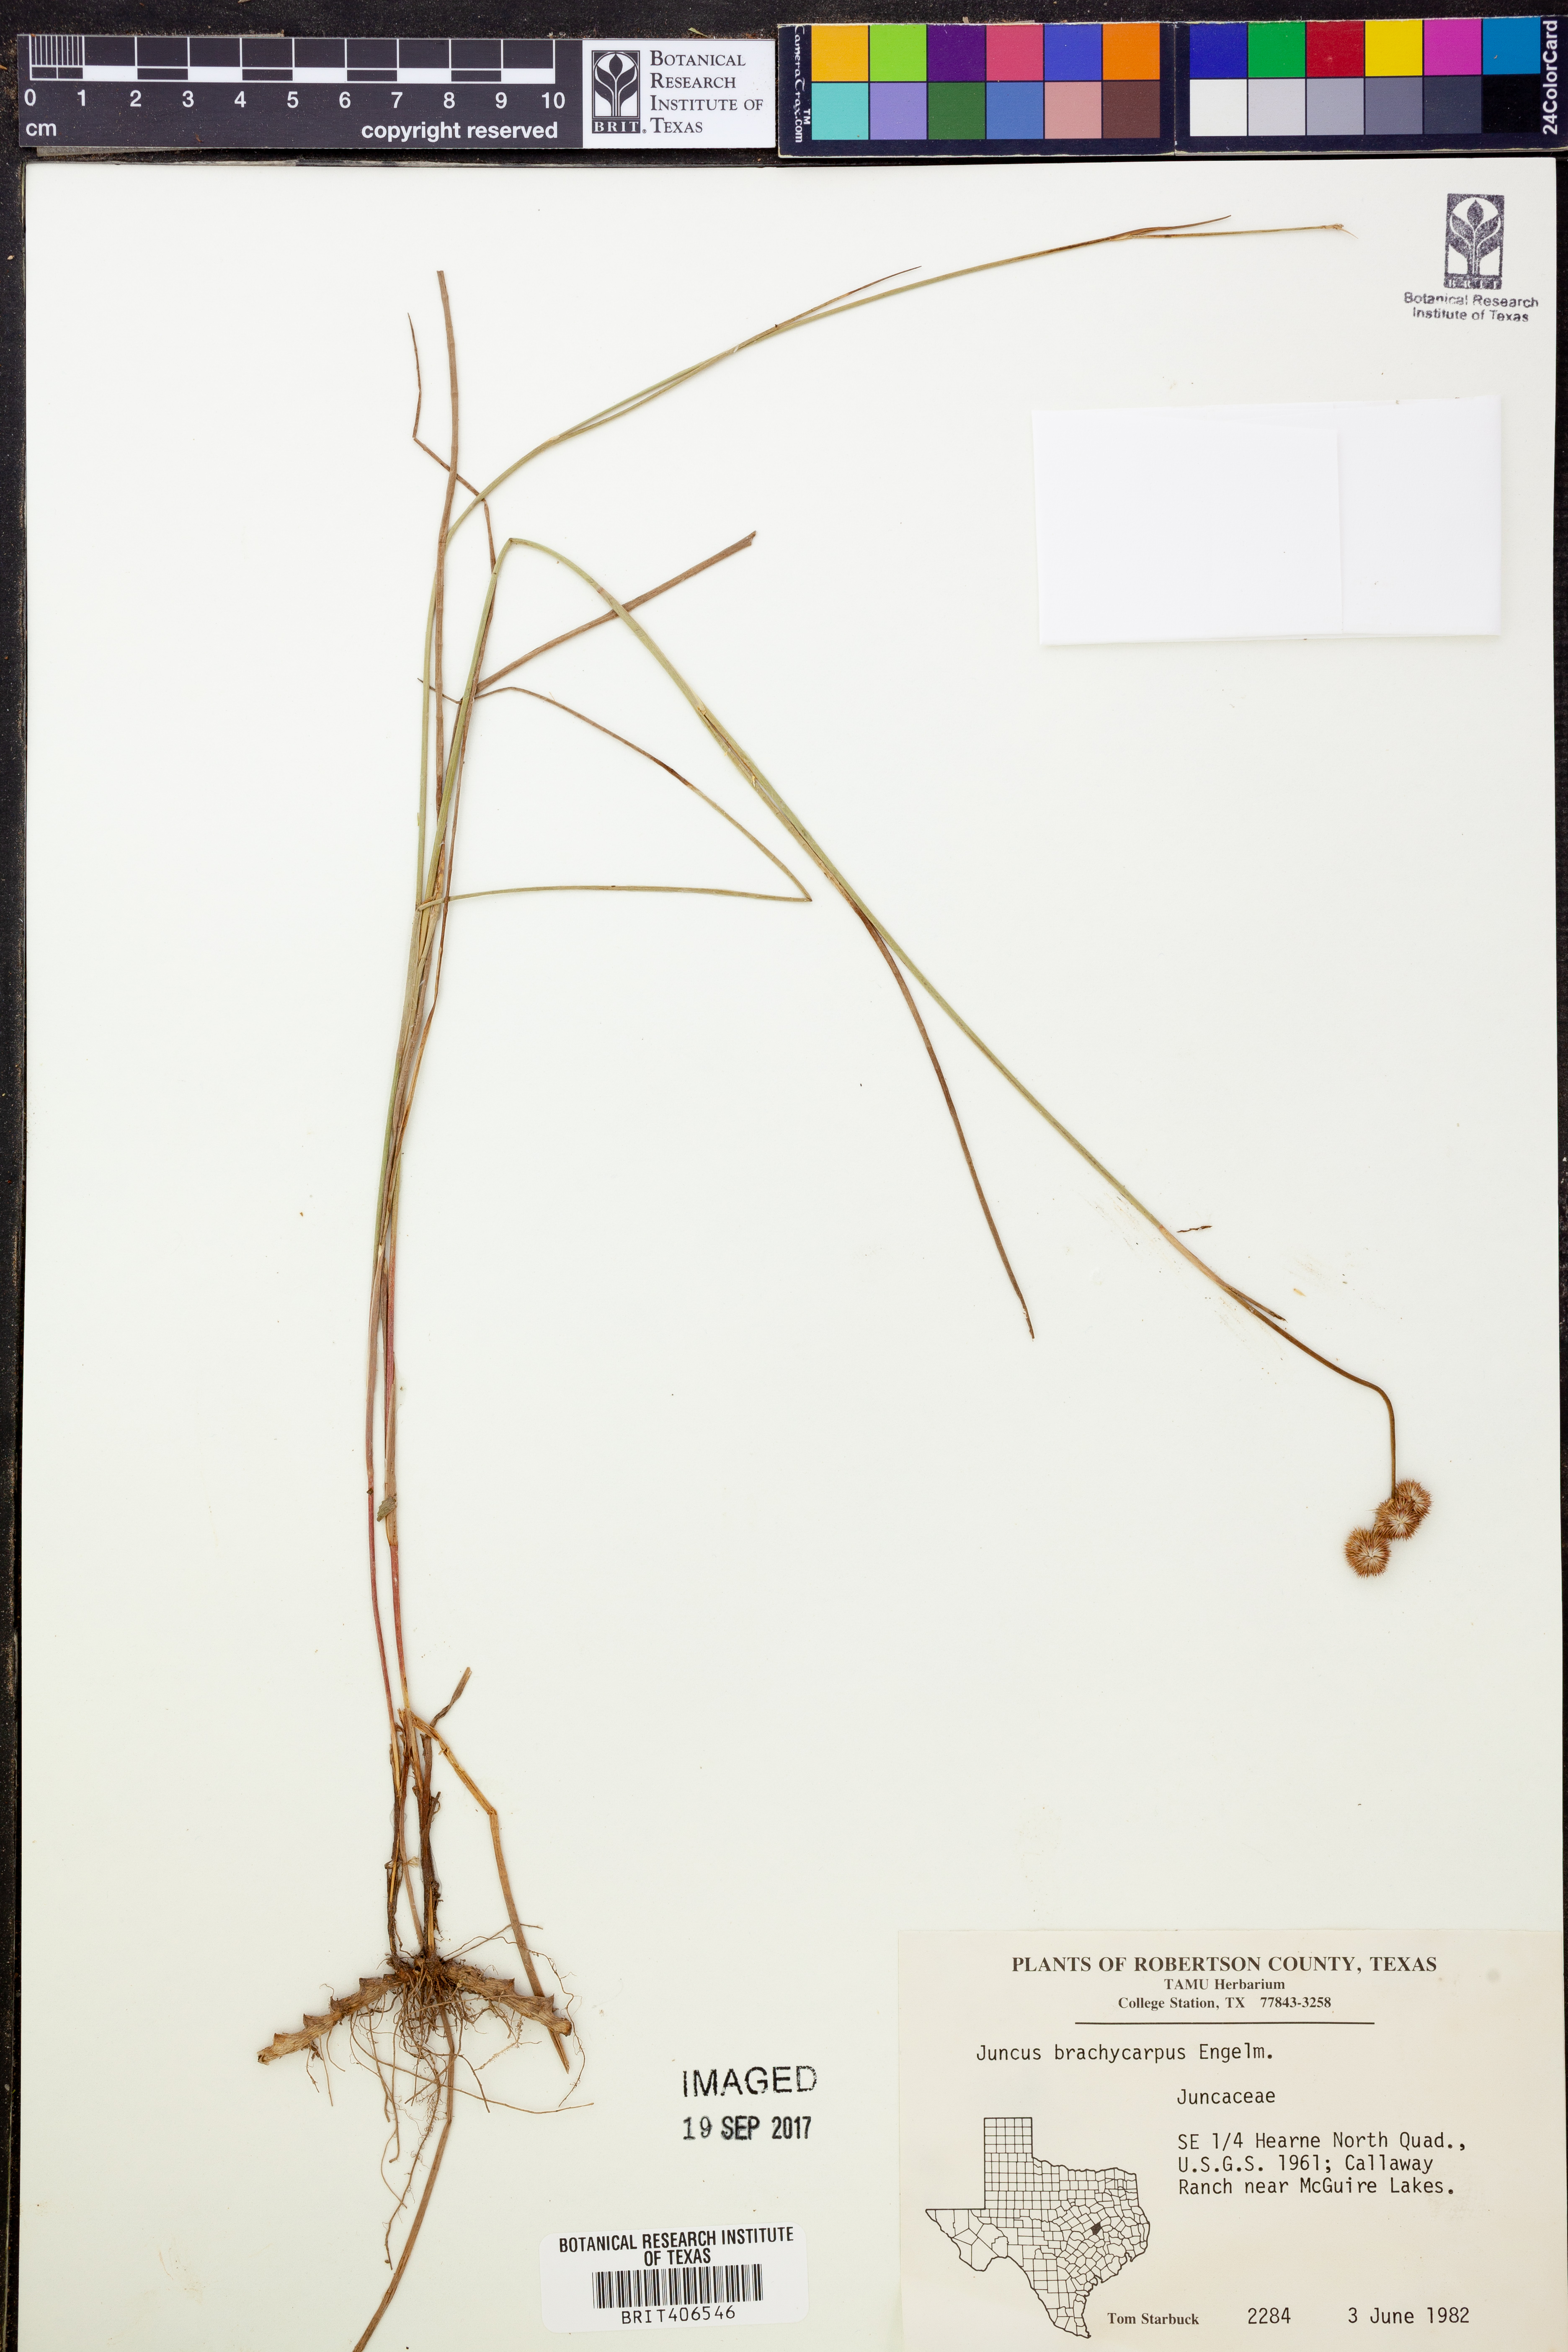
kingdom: Plantae
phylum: Tracheophyta
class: Liliopsida
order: Poales
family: Juncaceae
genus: Juncus
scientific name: Juncus brachycarpus
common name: Shore rush
